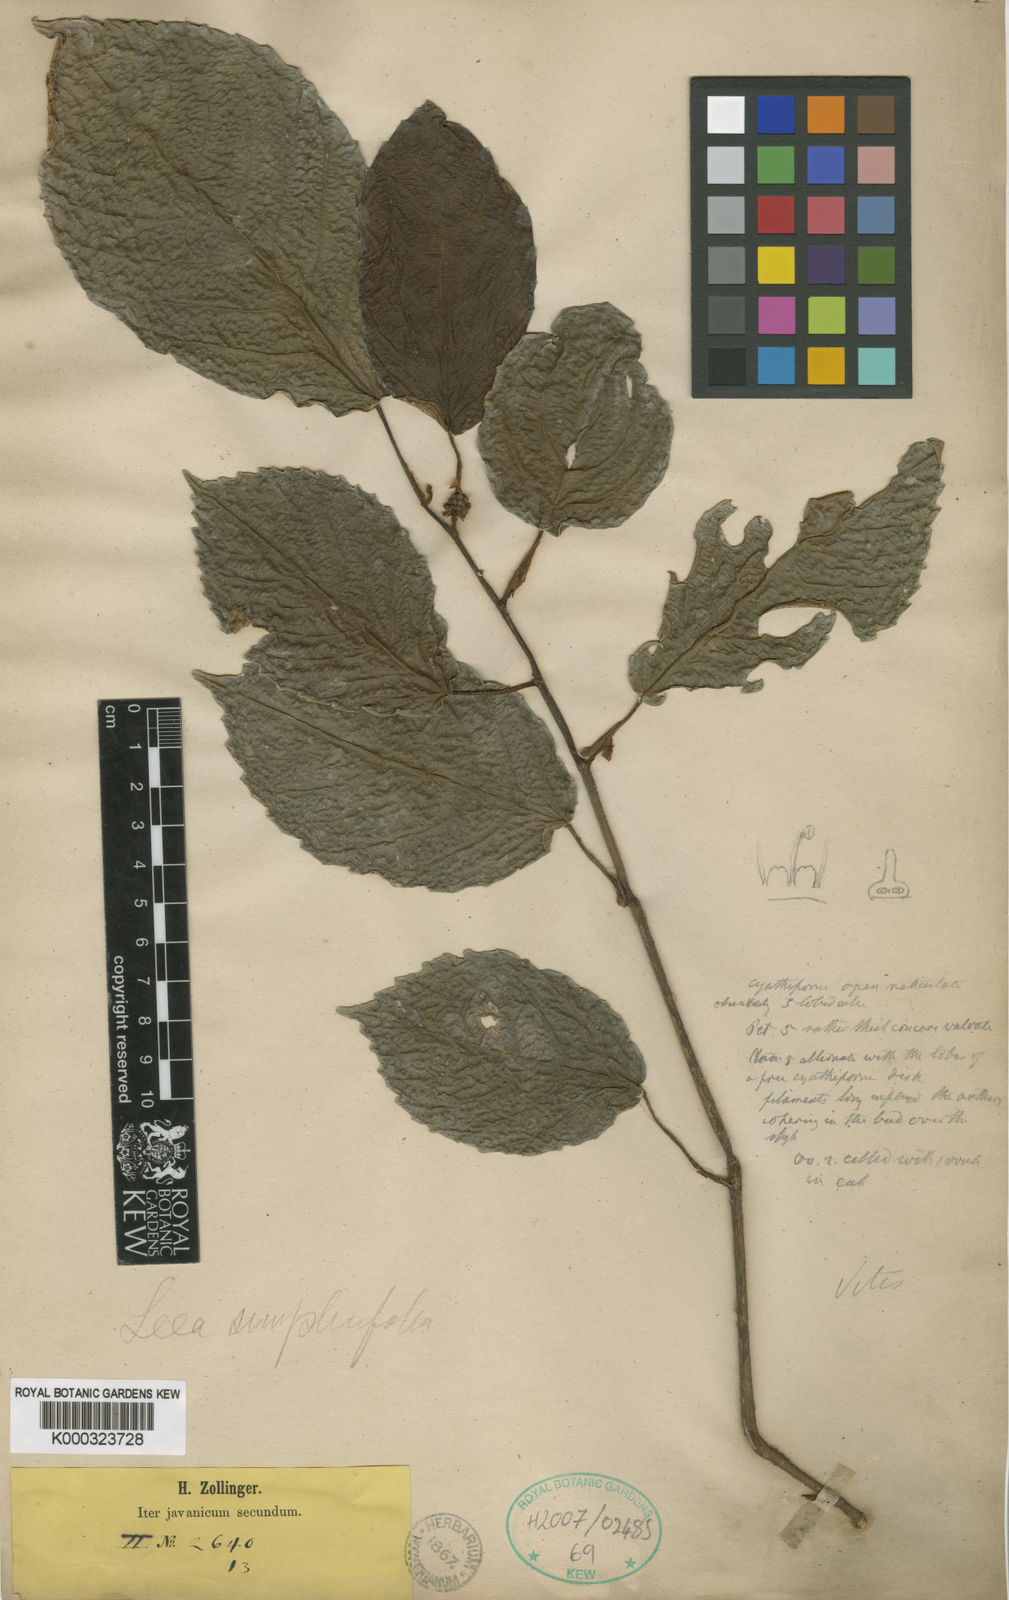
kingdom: Plantae
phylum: Tracheophyta
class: Magnoliopsida
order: Vitales
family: Vitaceae
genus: Leea
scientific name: Leea simplicifolia
